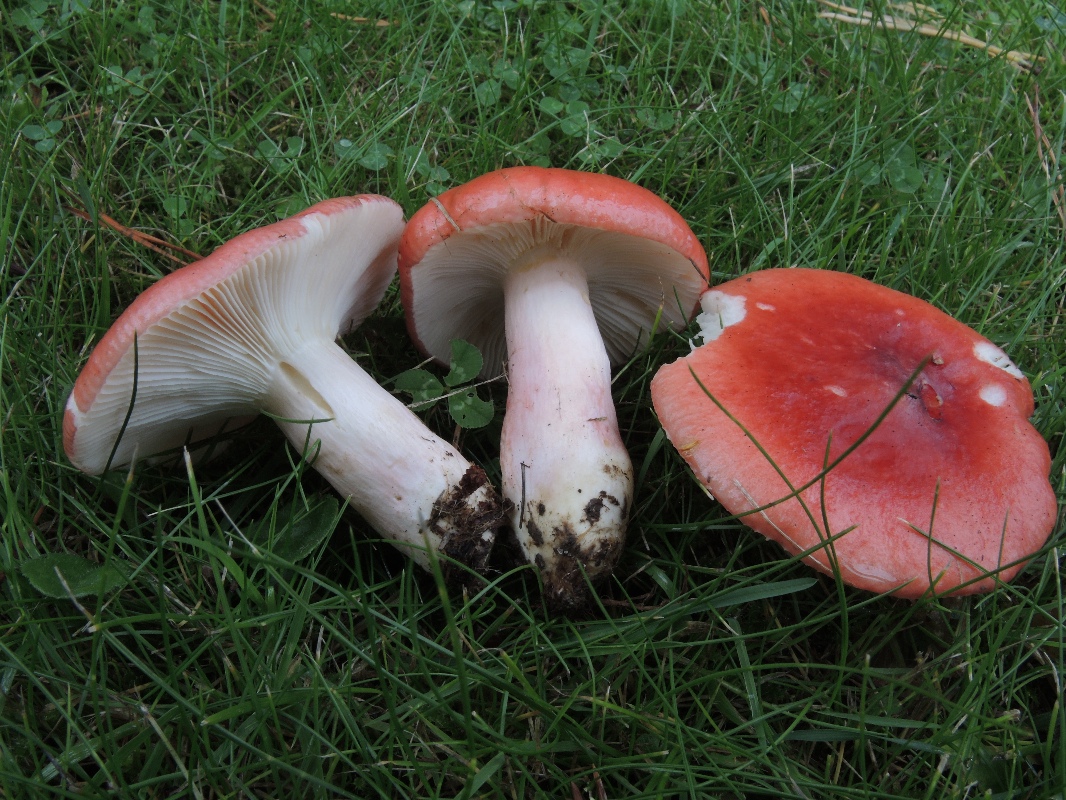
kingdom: Fungi
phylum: Basidiomycota
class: Agaricomycetes
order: Russulales
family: Russulaceae
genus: Russula
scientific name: Russula sanguinea
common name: blodrød skørhat
